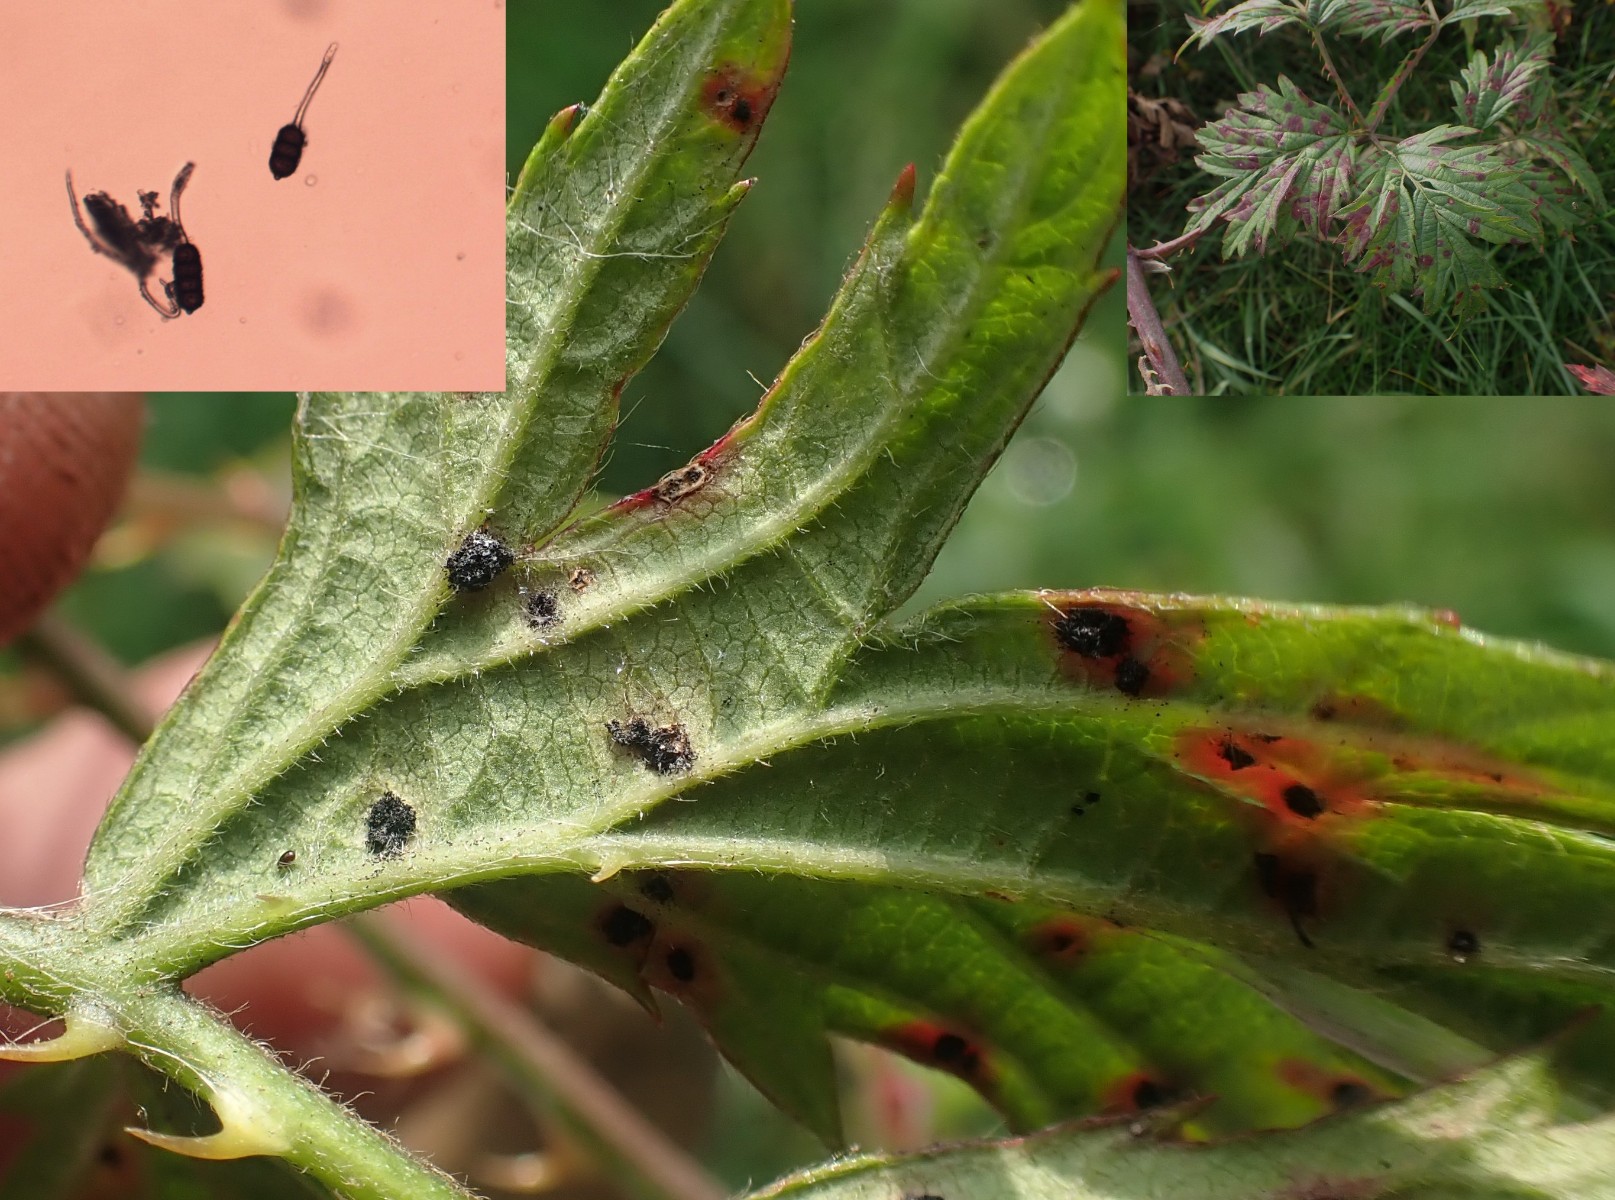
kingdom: Fungi
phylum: Basidiomycota
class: Pucciniomycetes
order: Pucciniales
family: Phragmidiaceae
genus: Phragmidium
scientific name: Phragmidium violaceum
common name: violet flercellerust
